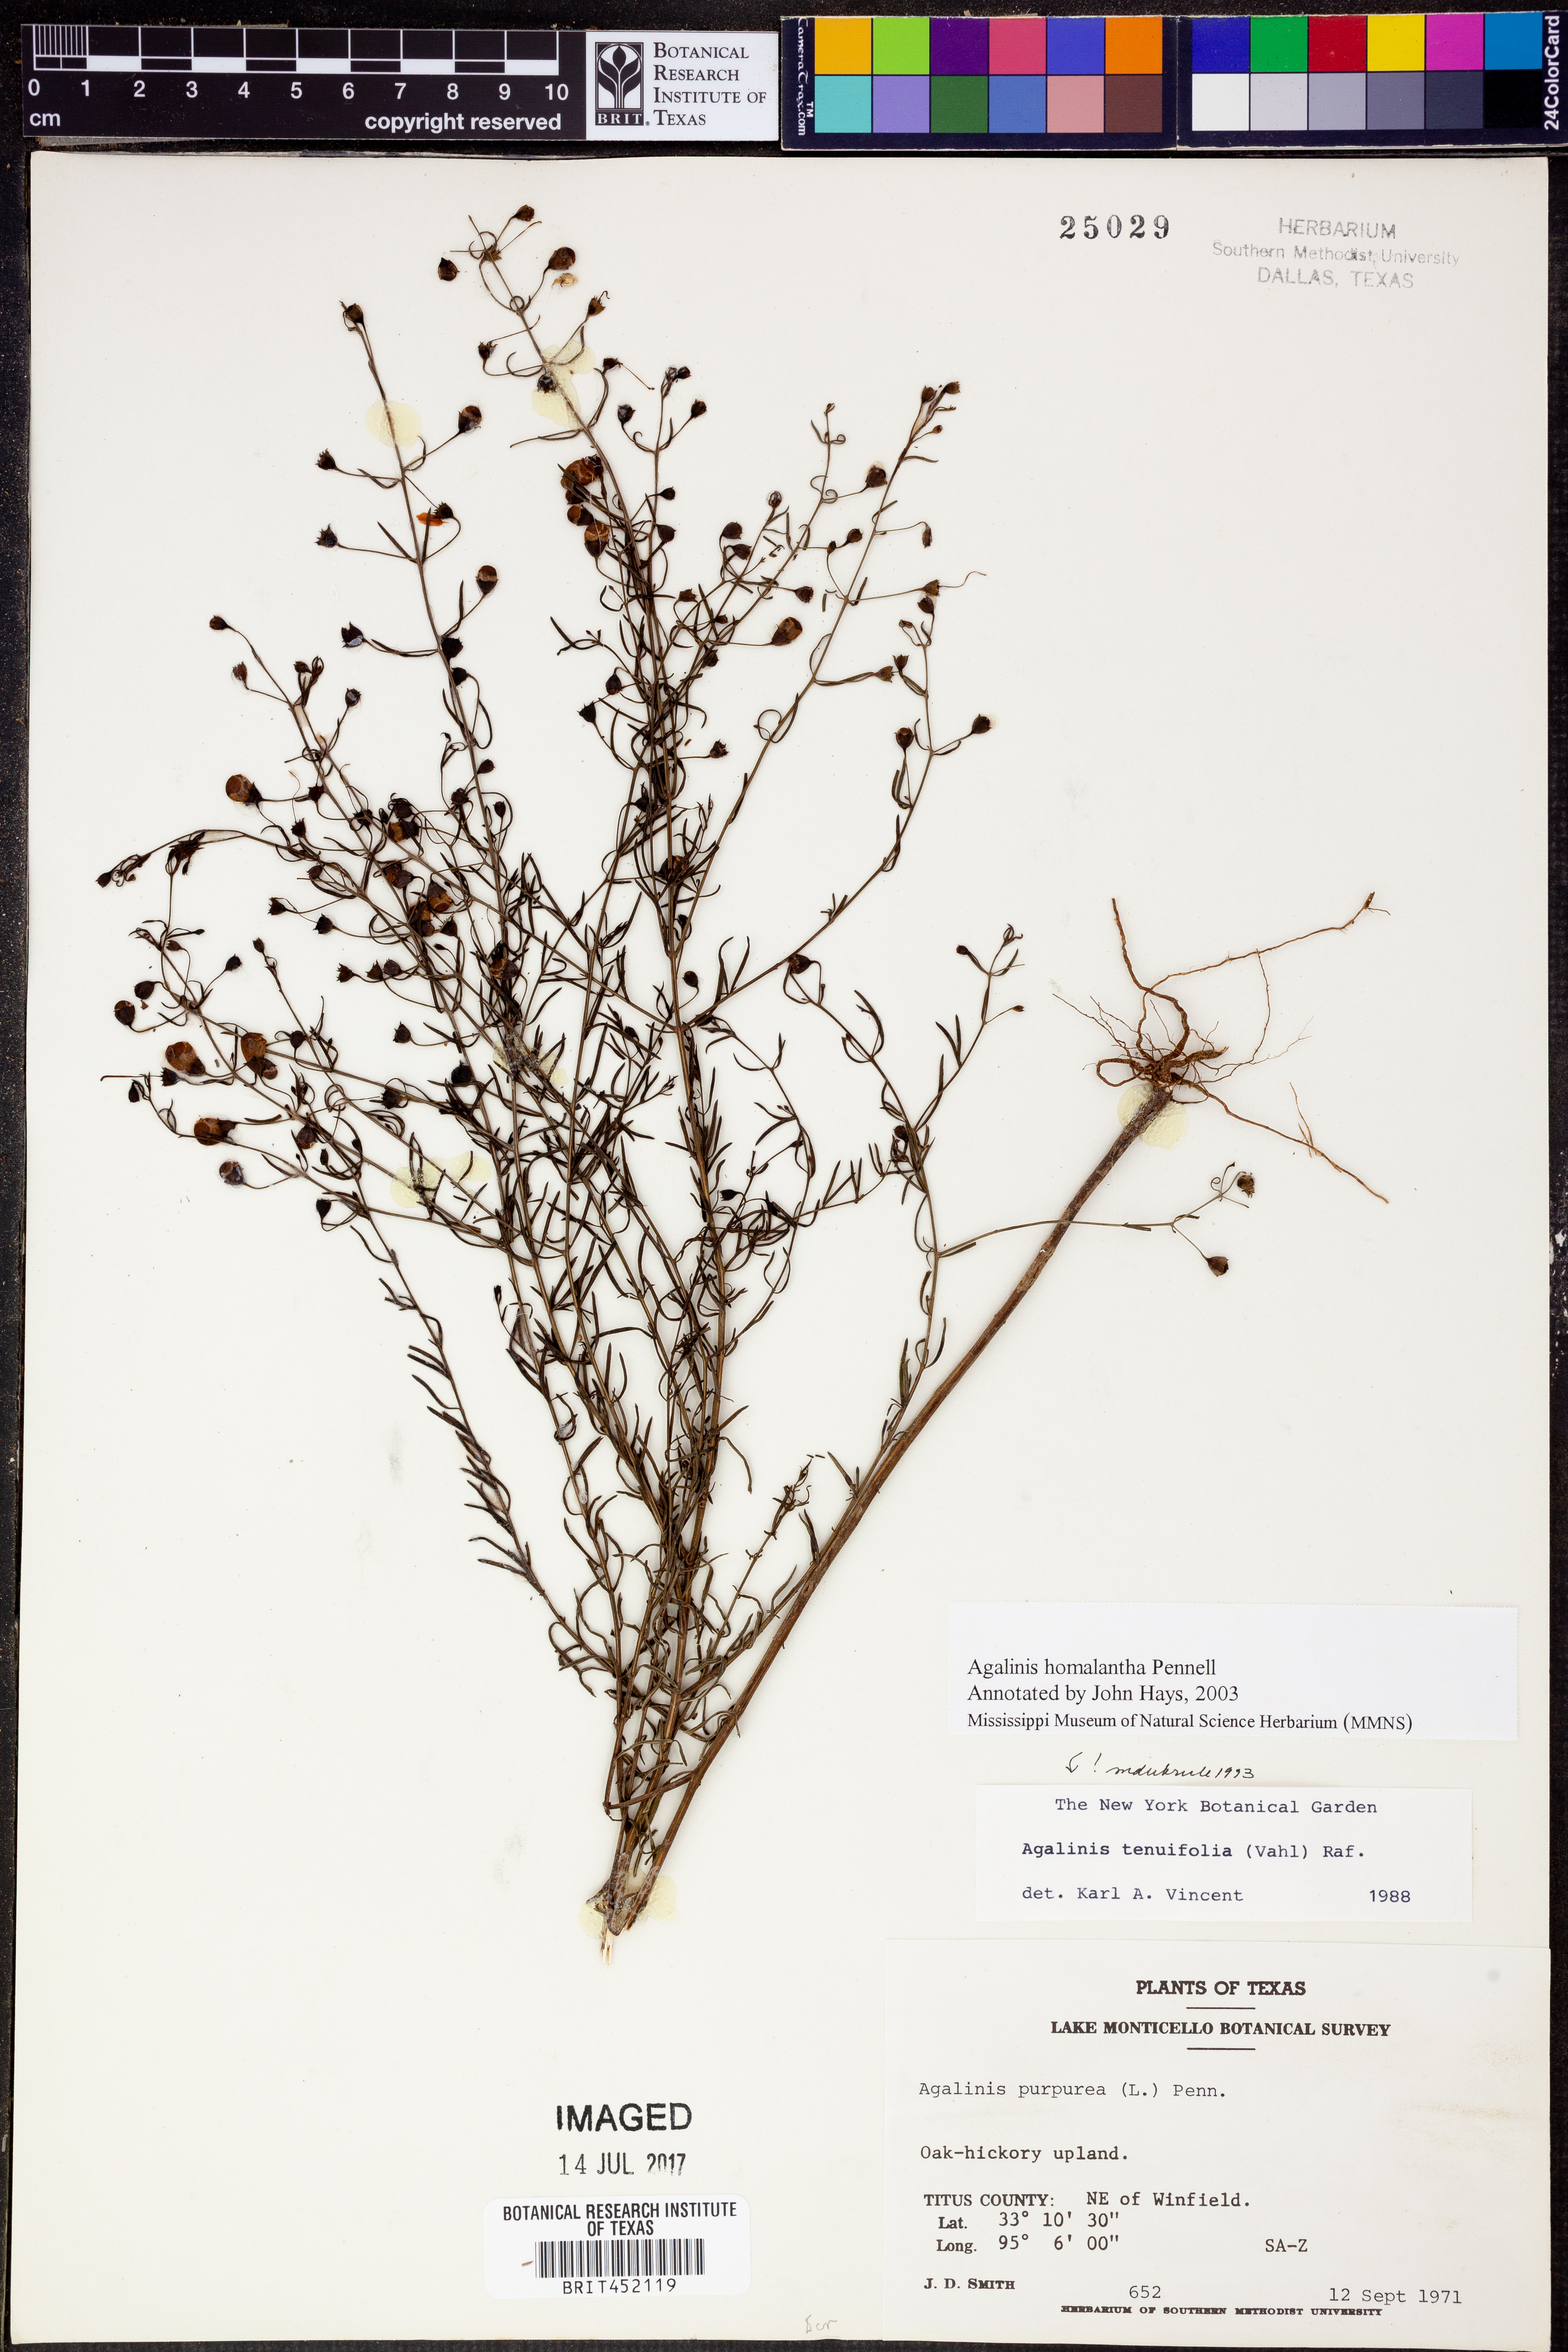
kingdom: Plantae
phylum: Tracheophyta
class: Magnoliopsida
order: Lamiales
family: Orobanchaceae
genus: Agalinis
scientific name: Agalinis homalantha
